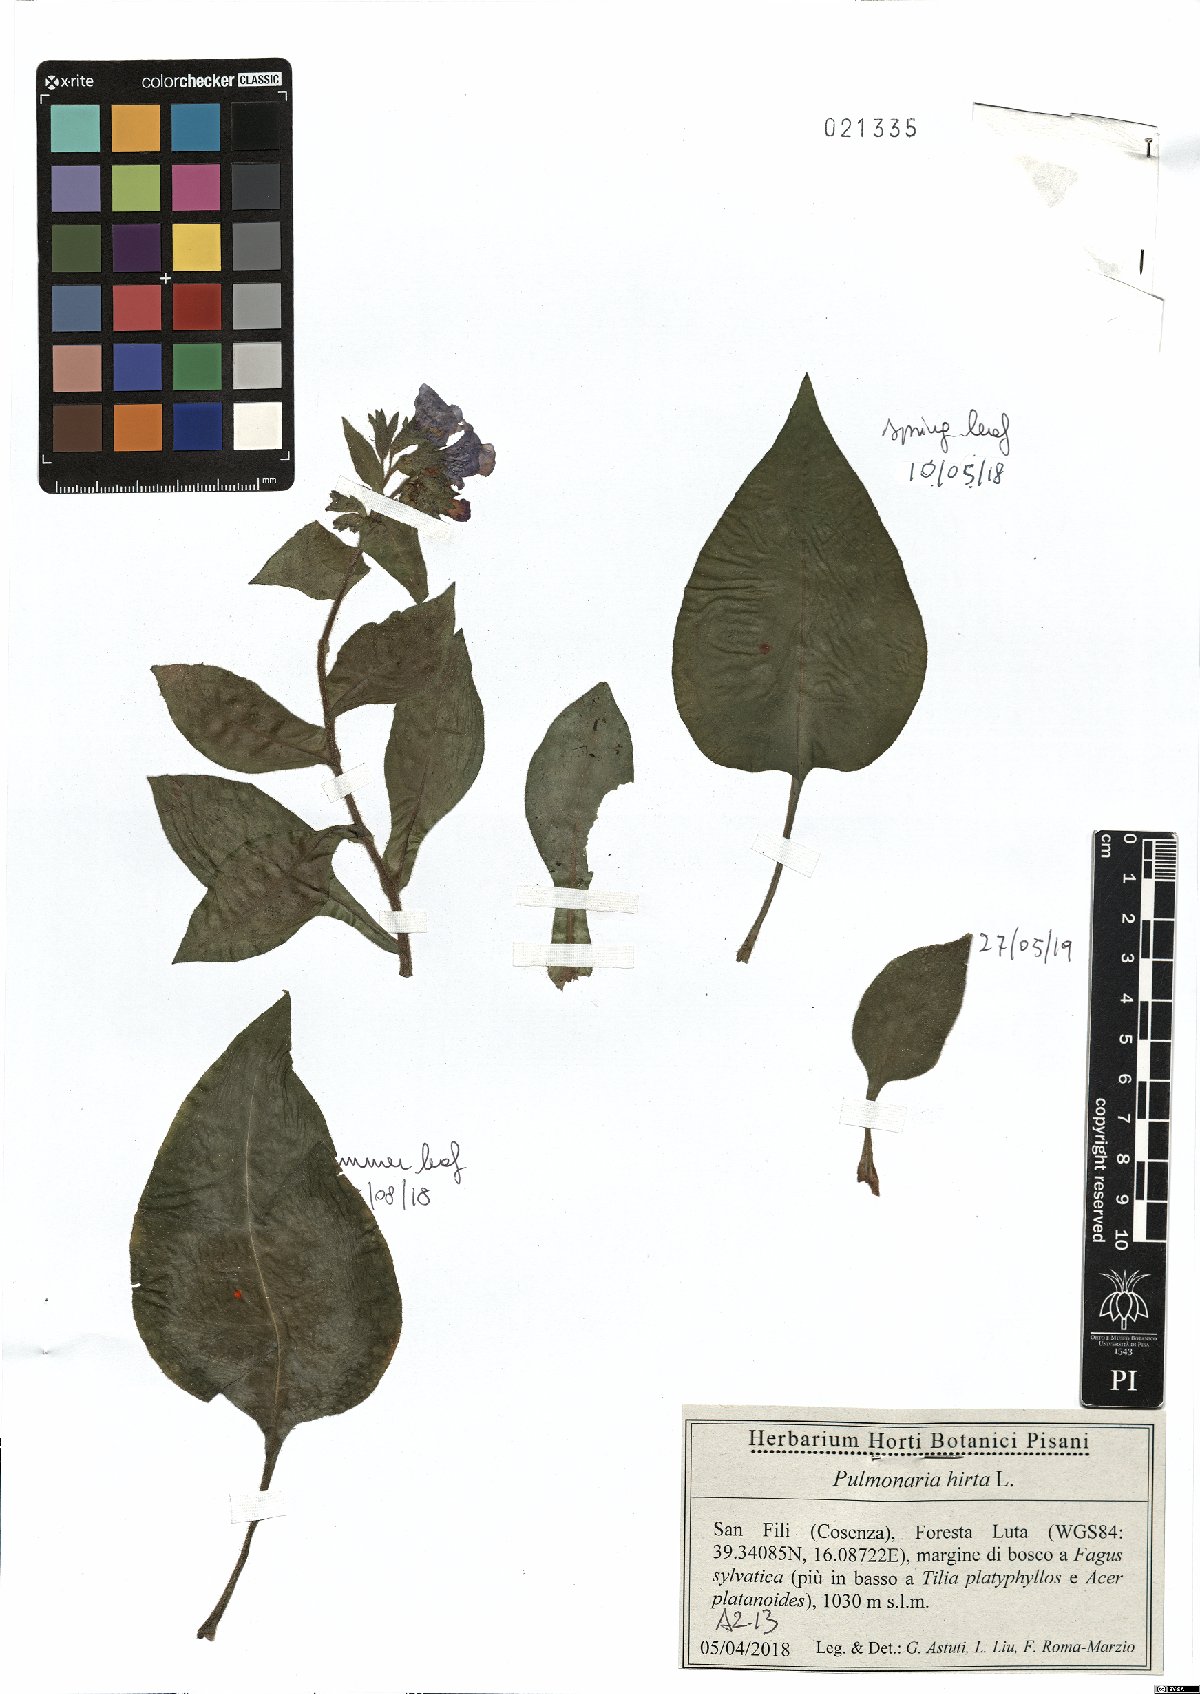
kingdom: Plantae
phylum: Tracheophyta
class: Magnoliopsida
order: Boraginales
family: Boraginaceae
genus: Pulmonaria
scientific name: Pulmonaria hirta
